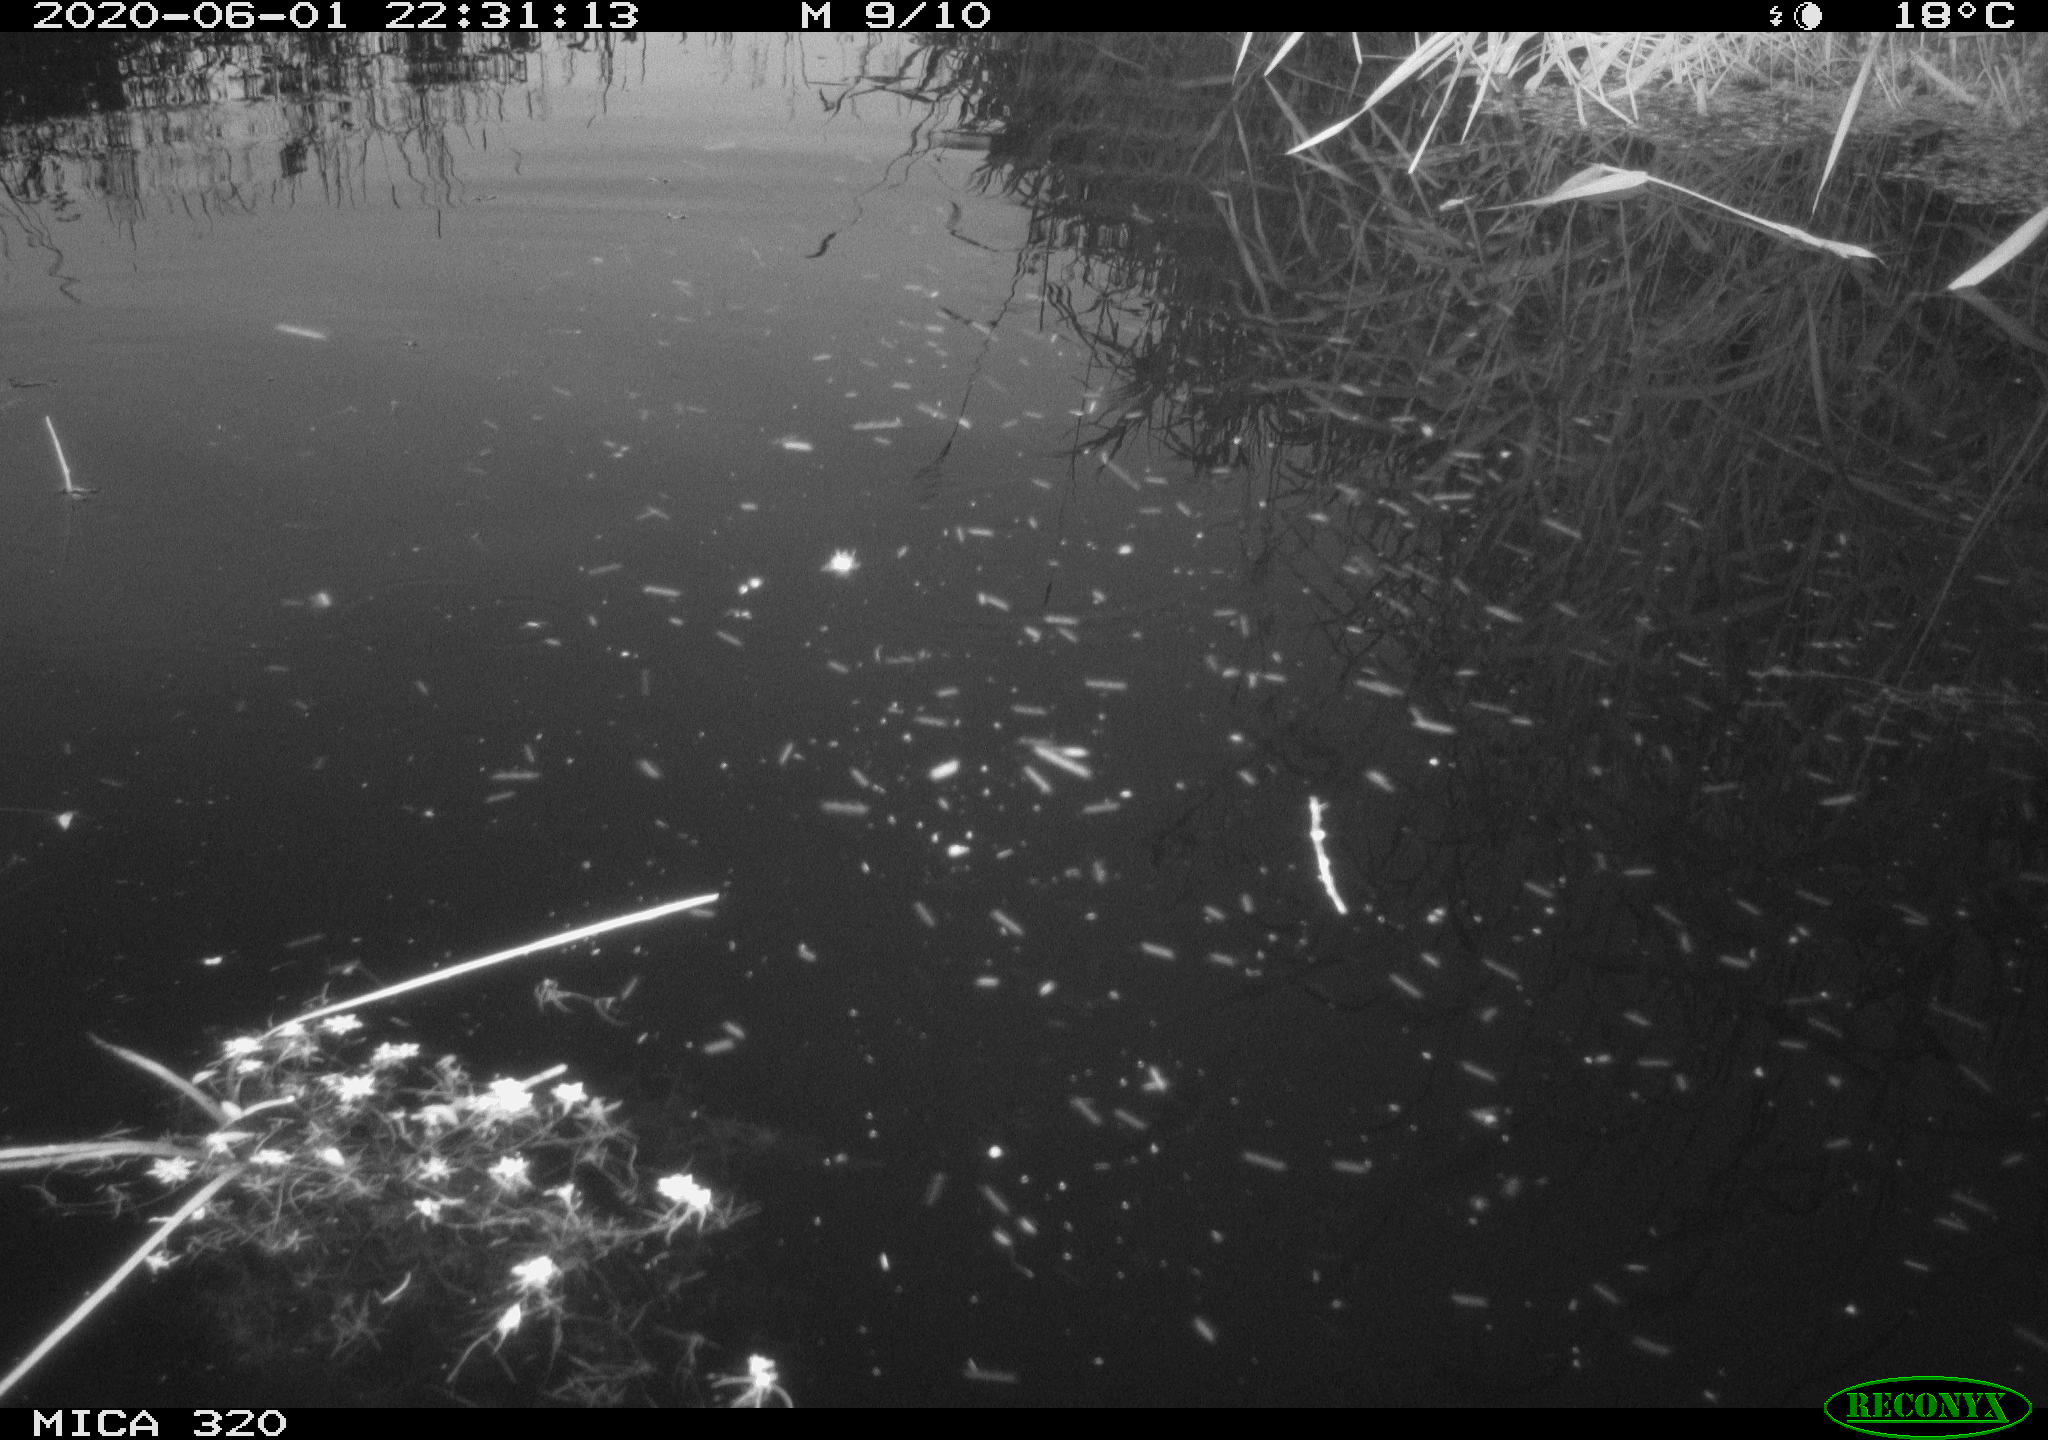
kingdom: Animalia
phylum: Chordata
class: Aves
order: Anseriformes
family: Anatidae
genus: Anas
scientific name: Anas platyrhynchos
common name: Mallard
